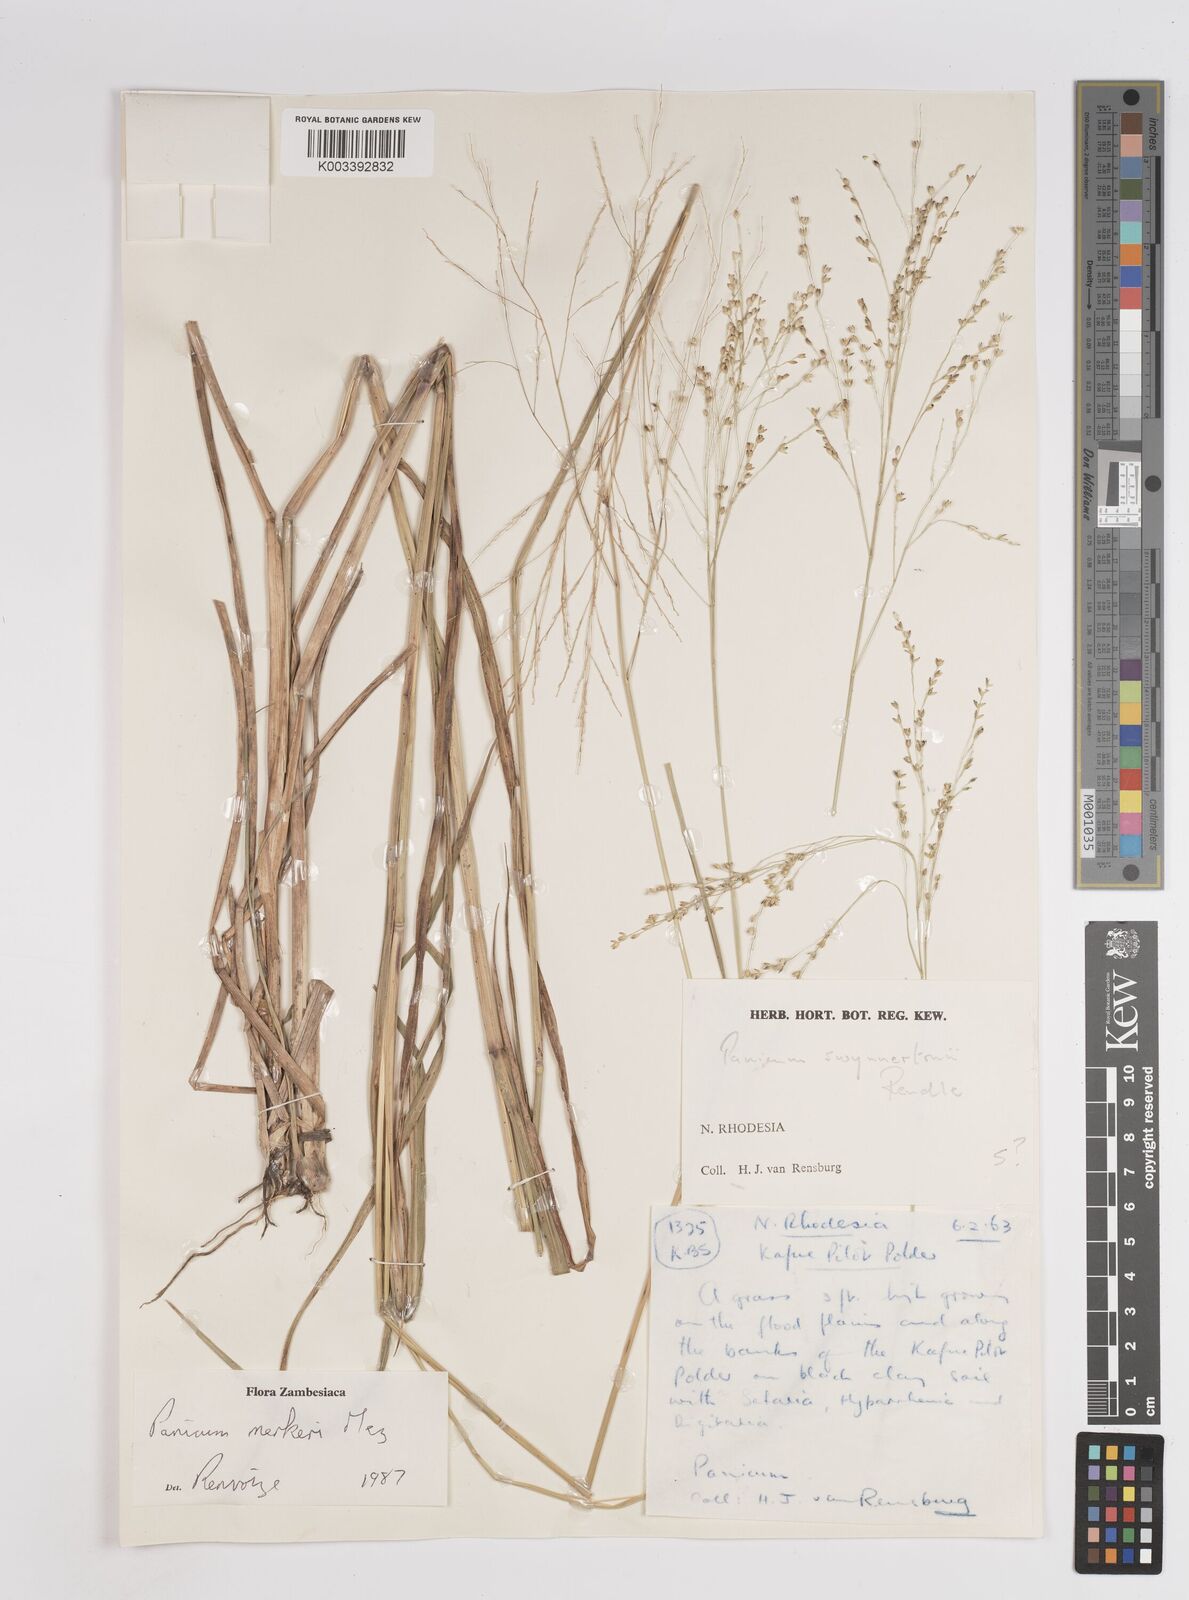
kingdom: Plantae
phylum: Tracheophyta
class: Liliopsida
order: Poales
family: Poaceae
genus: Panicum
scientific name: Panicum merkeri
